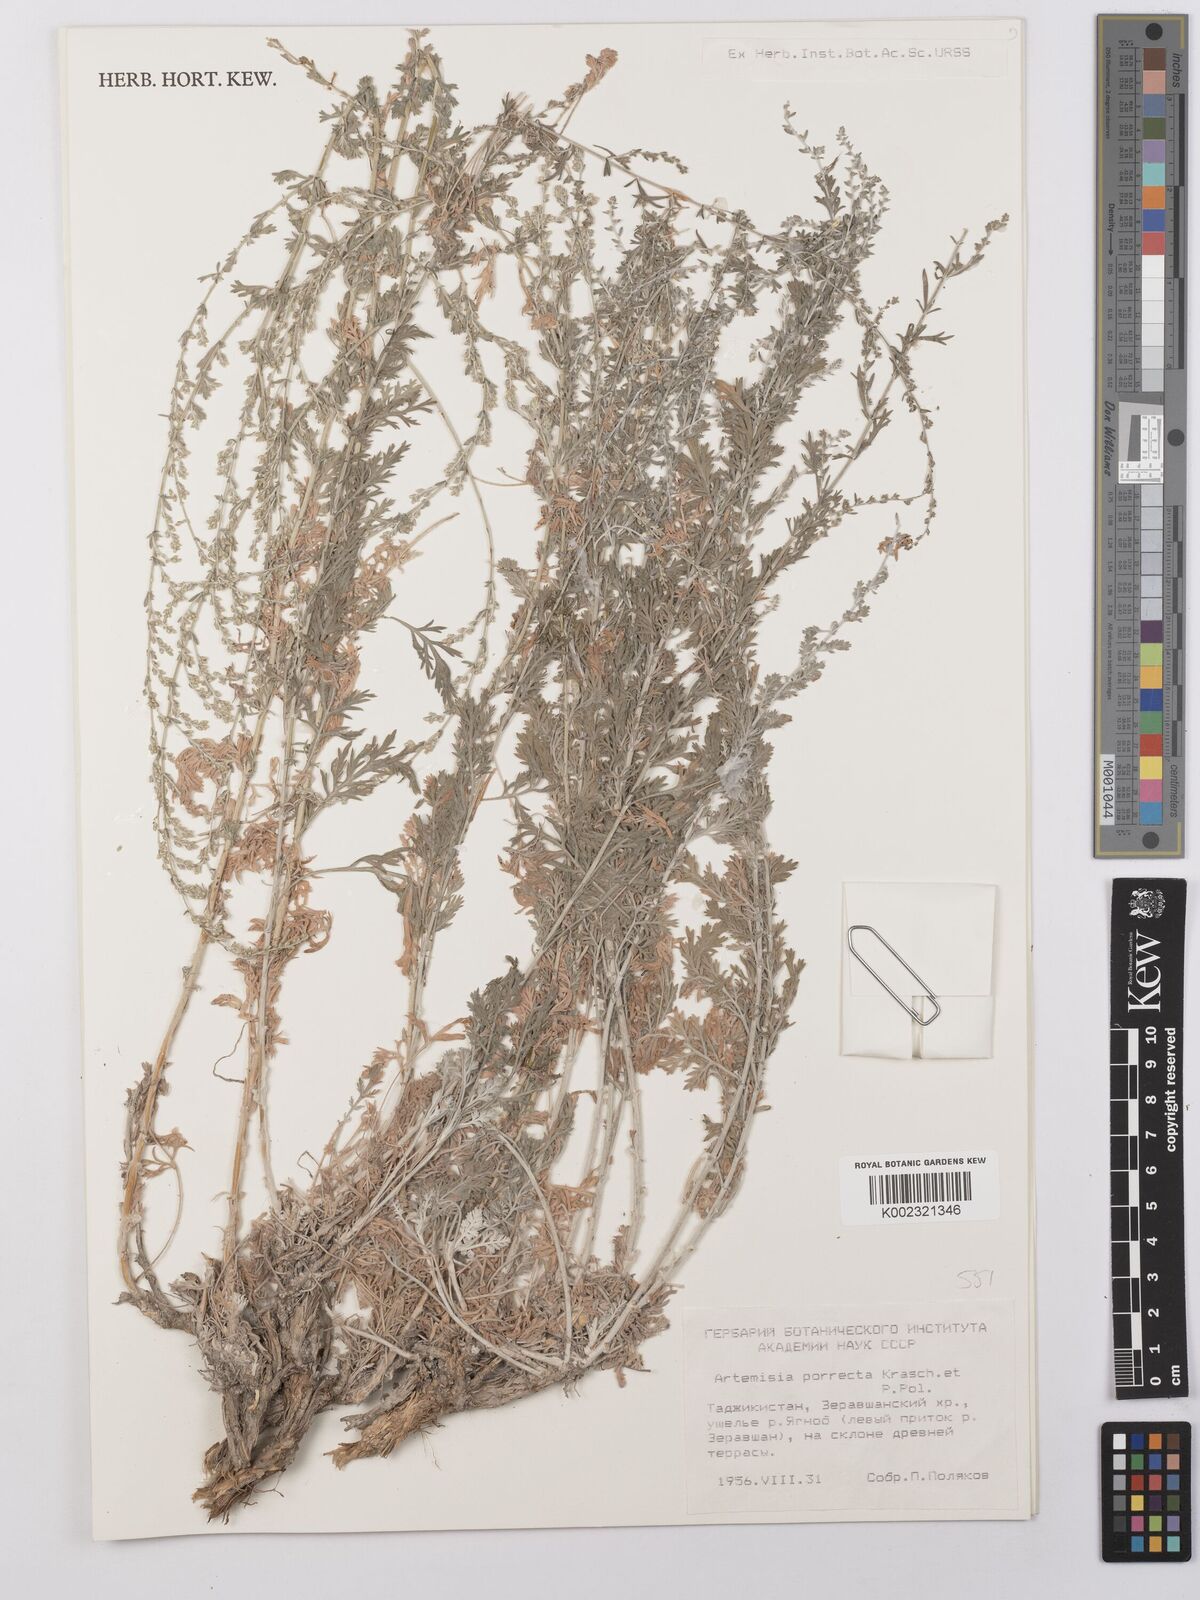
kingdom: Plantae
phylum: Tracheophyta
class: Magnoliopsida
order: Asterales
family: Asteraceae
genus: Artemisia
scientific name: Artemisia porrecta
